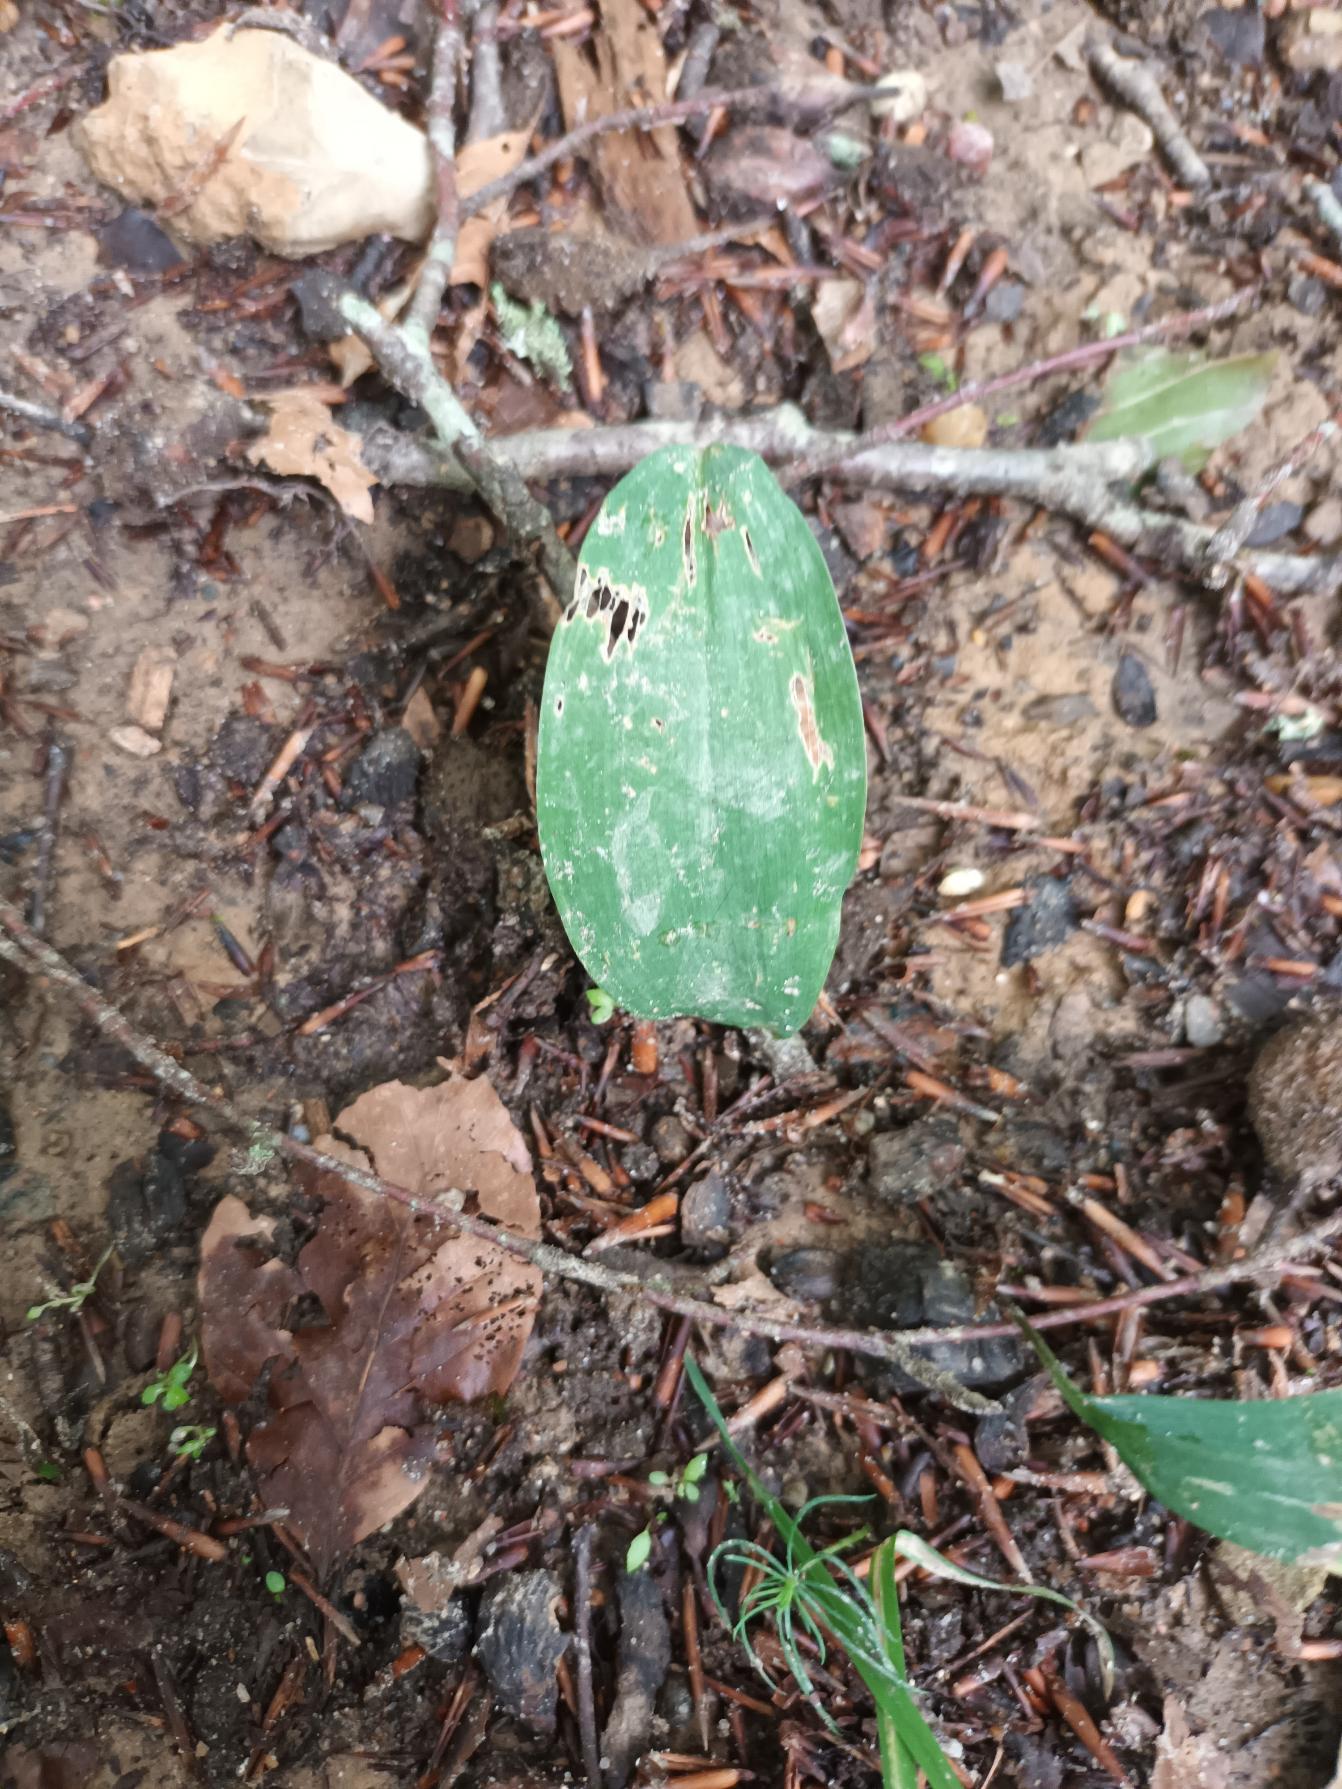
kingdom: Plantae
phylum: Tracheophyta
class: Liliopsida
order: Asparagales
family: Asparagaceae
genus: Convallaria
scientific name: Convallaria majalis
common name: Liljekonval
